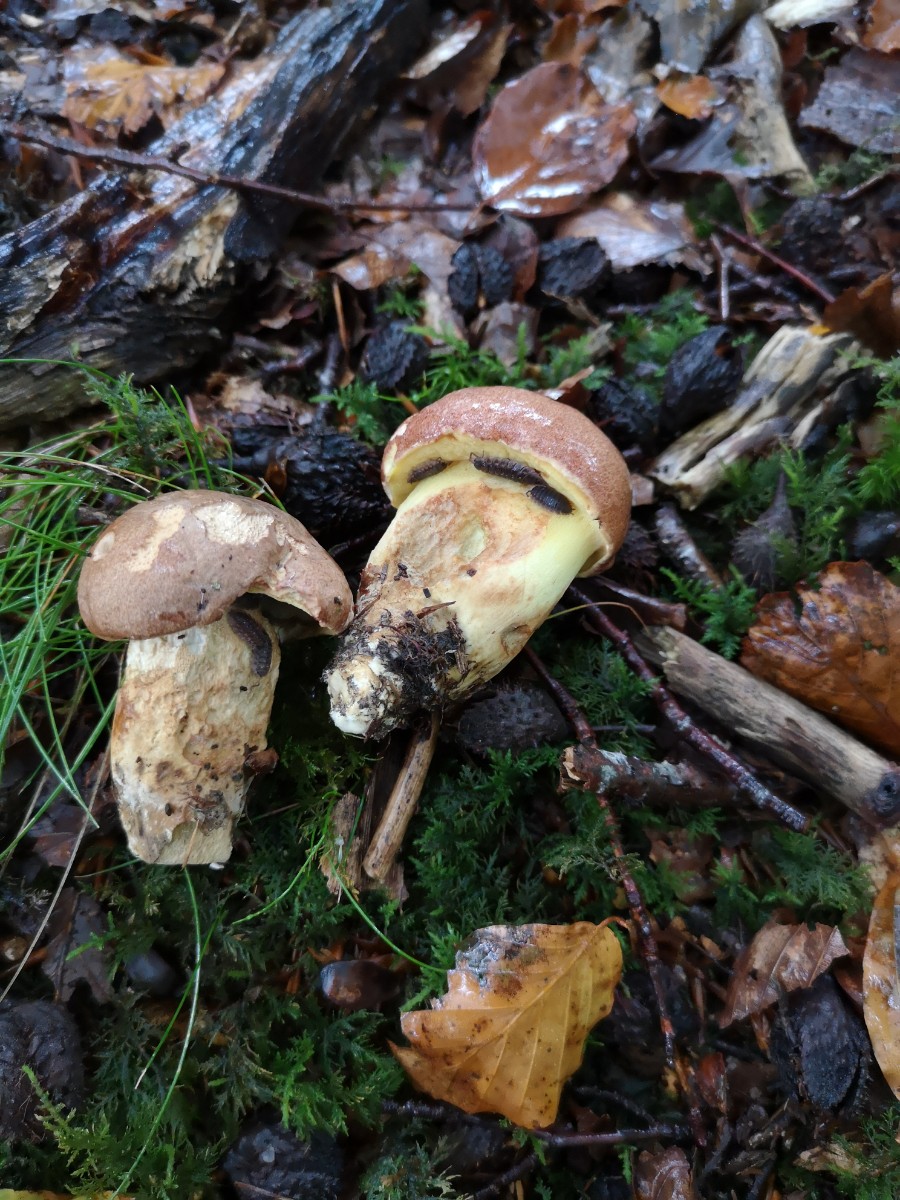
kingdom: Fungi
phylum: Basidiomycota
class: Agaricomycetes
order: Boletales
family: Boletaceae
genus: Butyriboletus
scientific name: Butyriboletus appendiculatus
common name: tenstokket rørhat
